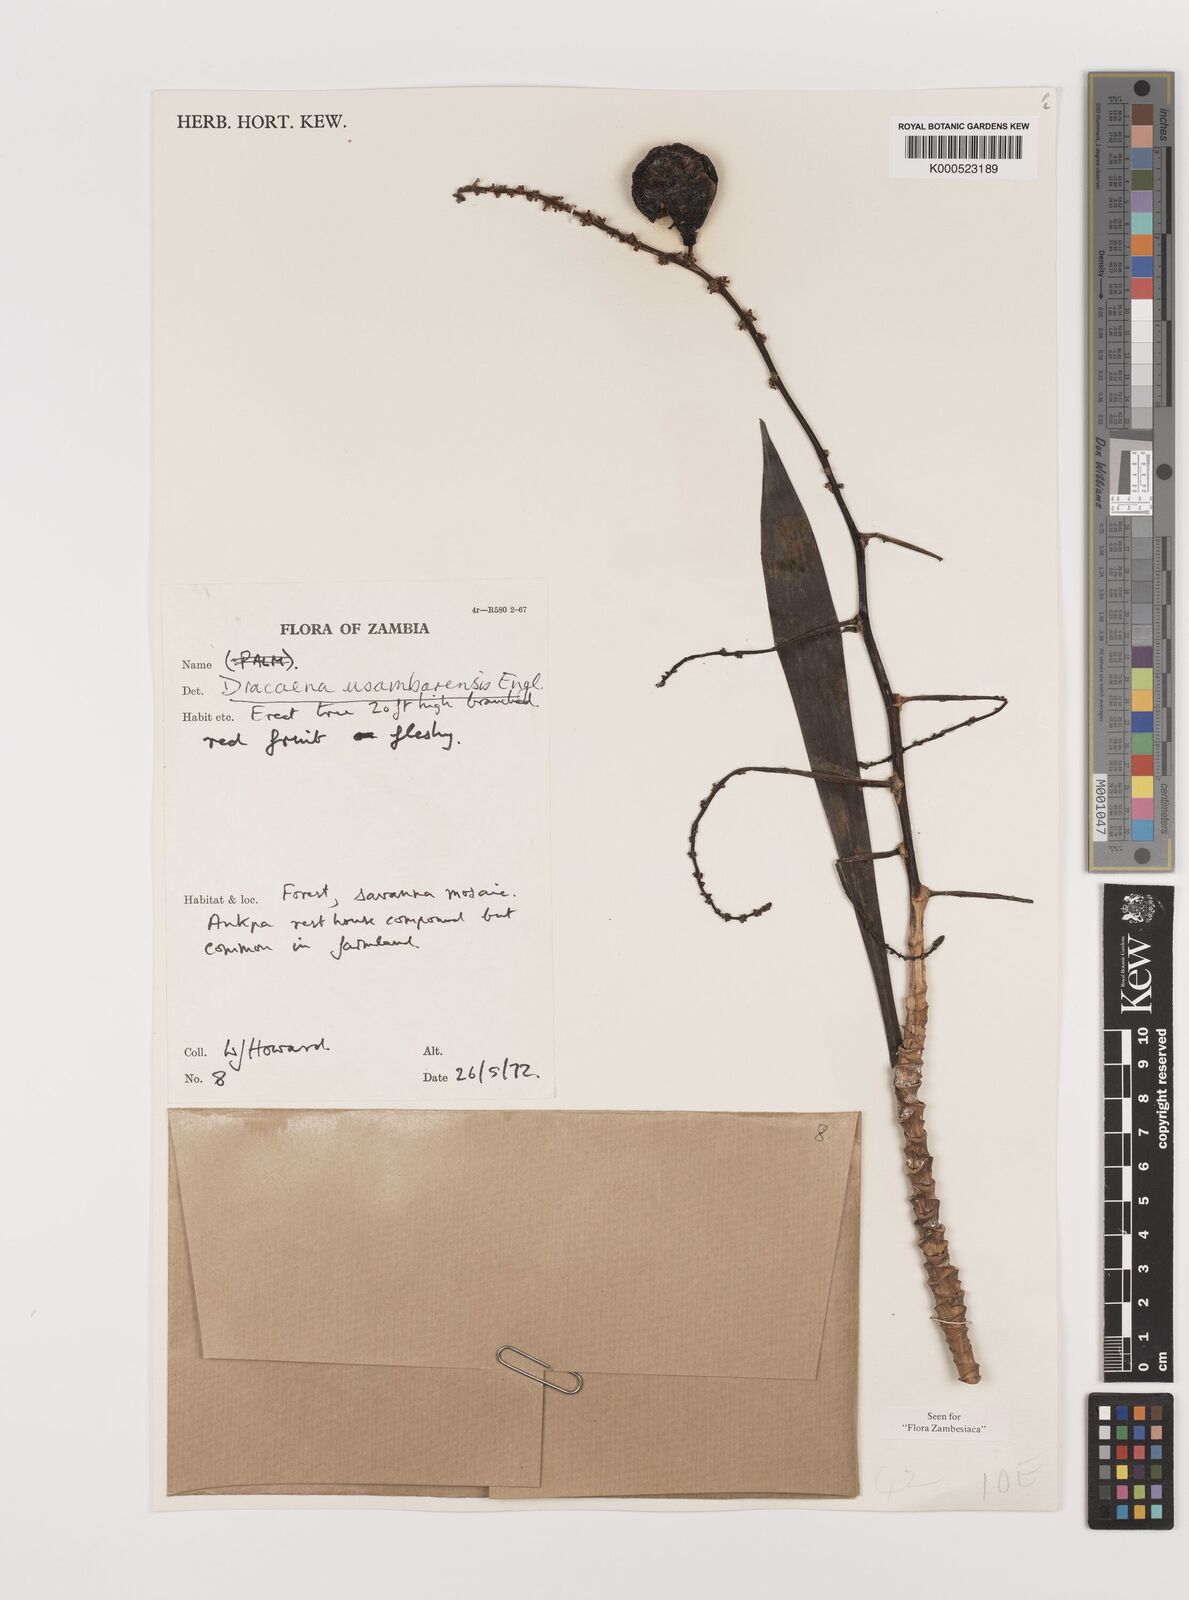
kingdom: Plantae
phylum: Tracheophyta
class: Liliopsida
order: Asparagales
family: Asparagaceae
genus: Dracaena
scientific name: Dracaena usambarensis
